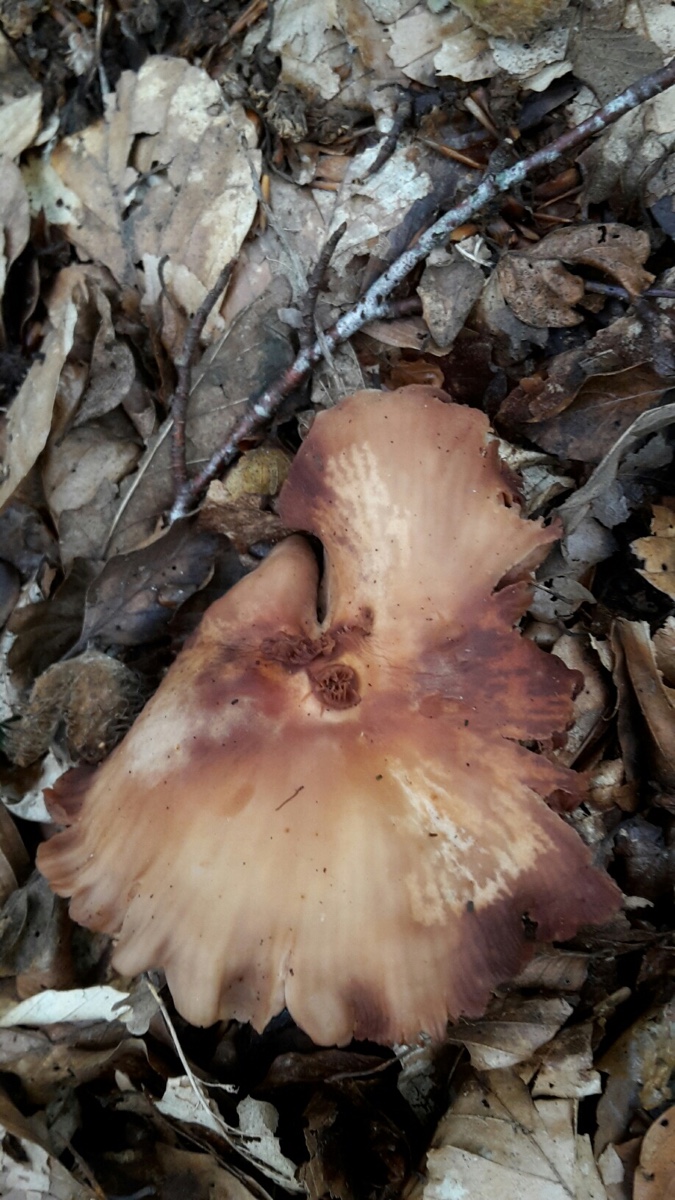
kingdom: Fungi
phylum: Basidiomycota
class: Agaricomycetes
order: Agaricales
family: Omphalotaceae
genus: Gymnopus
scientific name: Gymnopus fusipes
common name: tenstokket fladhat
